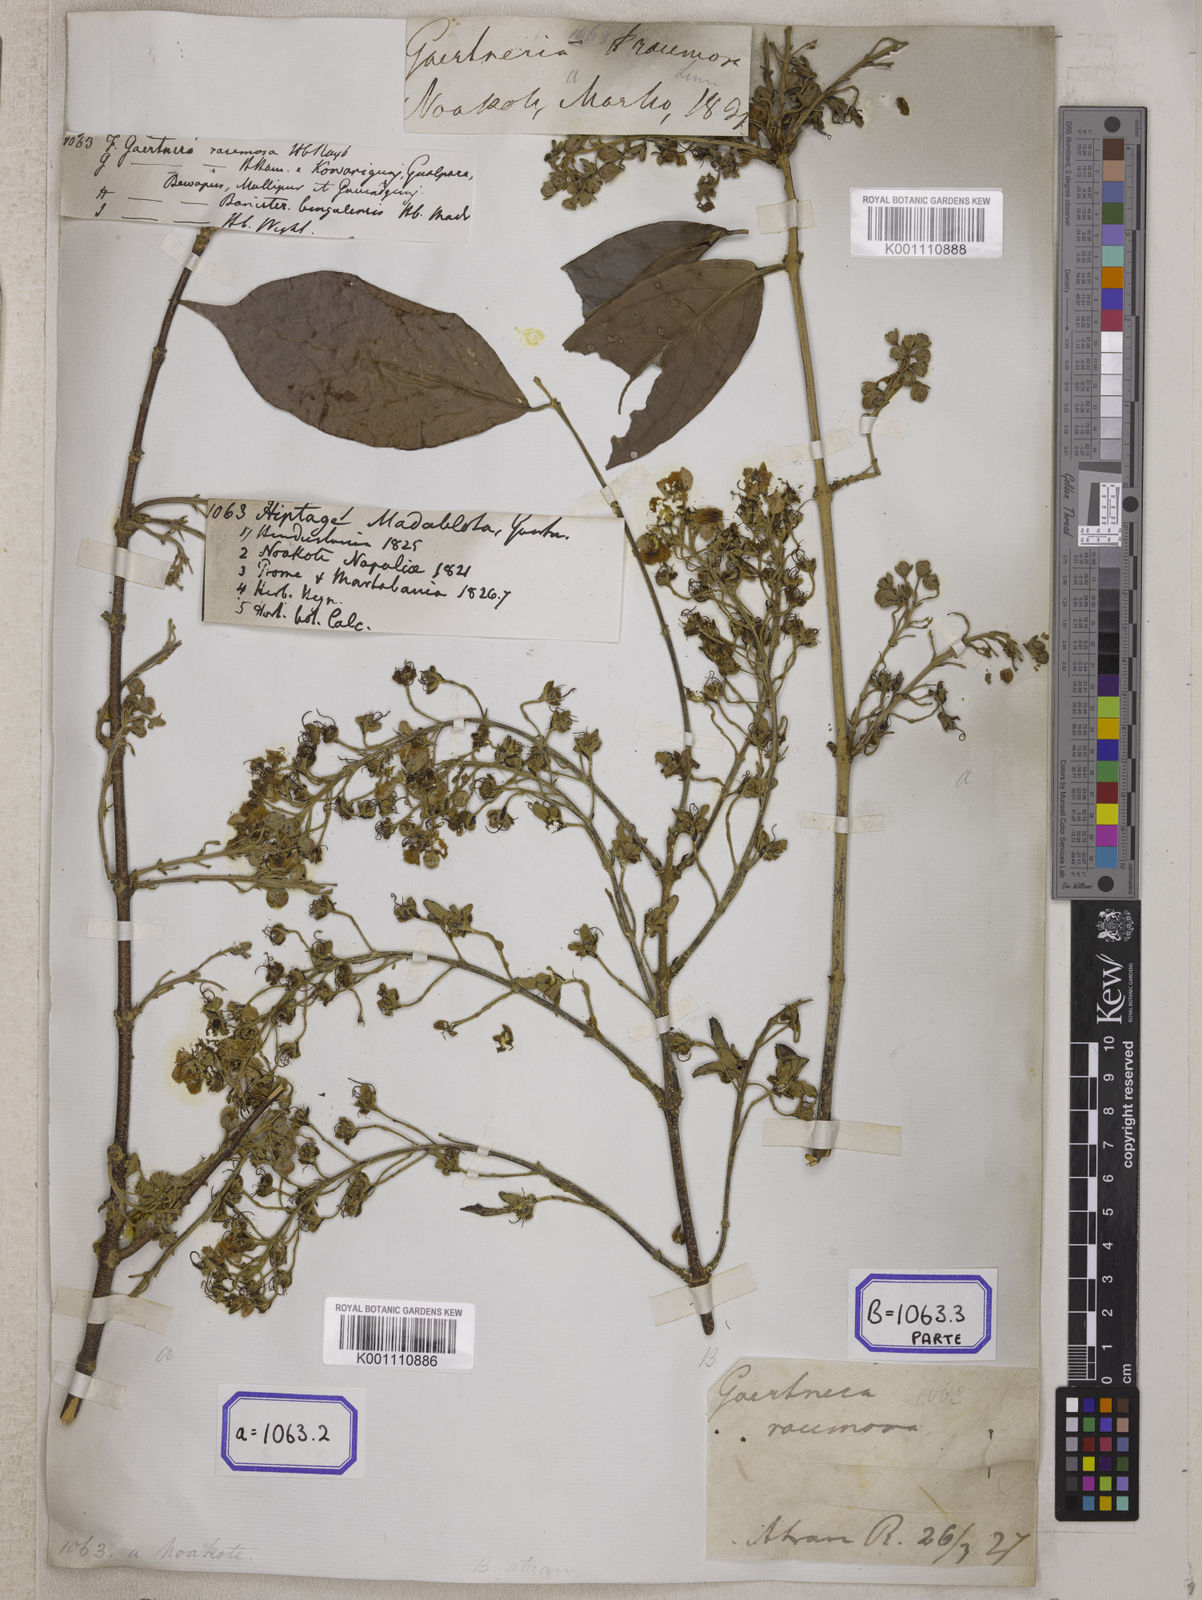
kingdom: Plantae
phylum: Tracheophyta
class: Magnoliopsida
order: Malpighiales
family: Malpighiaceae
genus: Hiptage
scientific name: Hiptage benghalensis
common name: Hiptage
